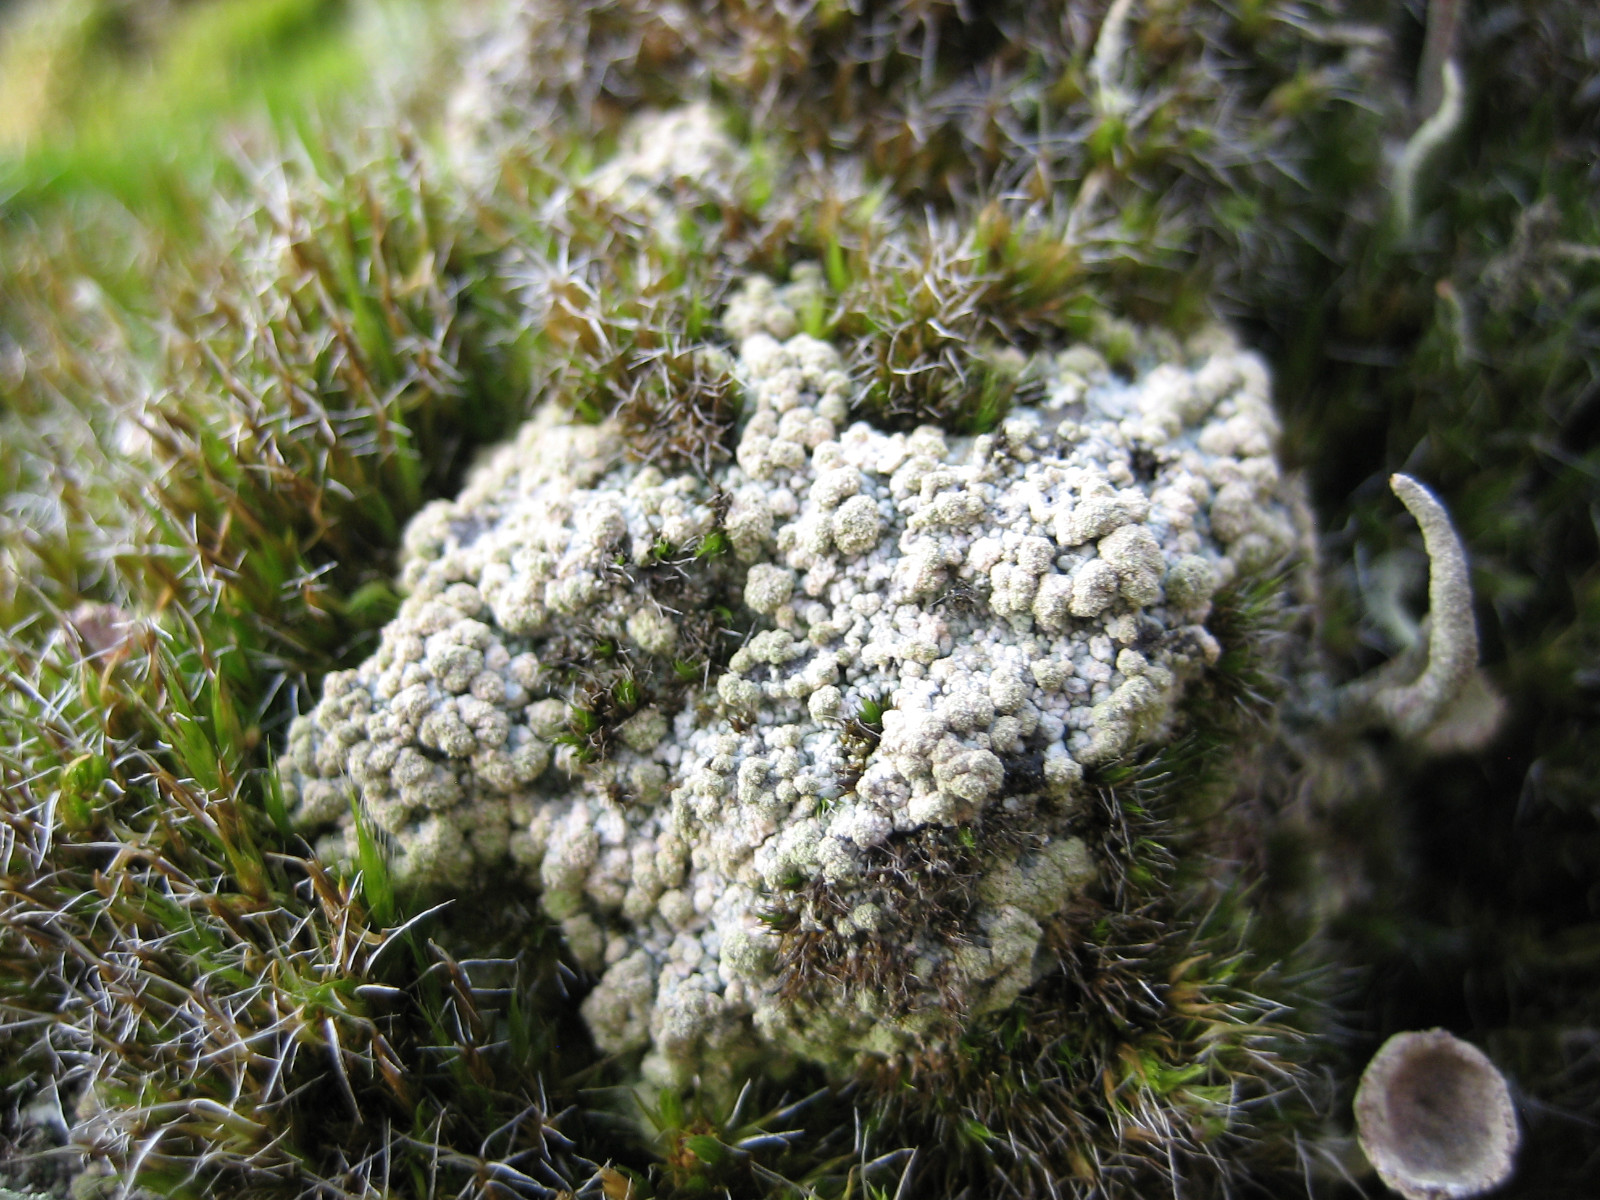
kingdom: Fungi
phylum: Ascomycota
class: Lecanoromycetes
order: Baeomycetales
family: Trapeliaceae
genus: Trapeliopsis
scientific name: Trapeliopsis granulosa
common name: forskelligfarvet skivelav
